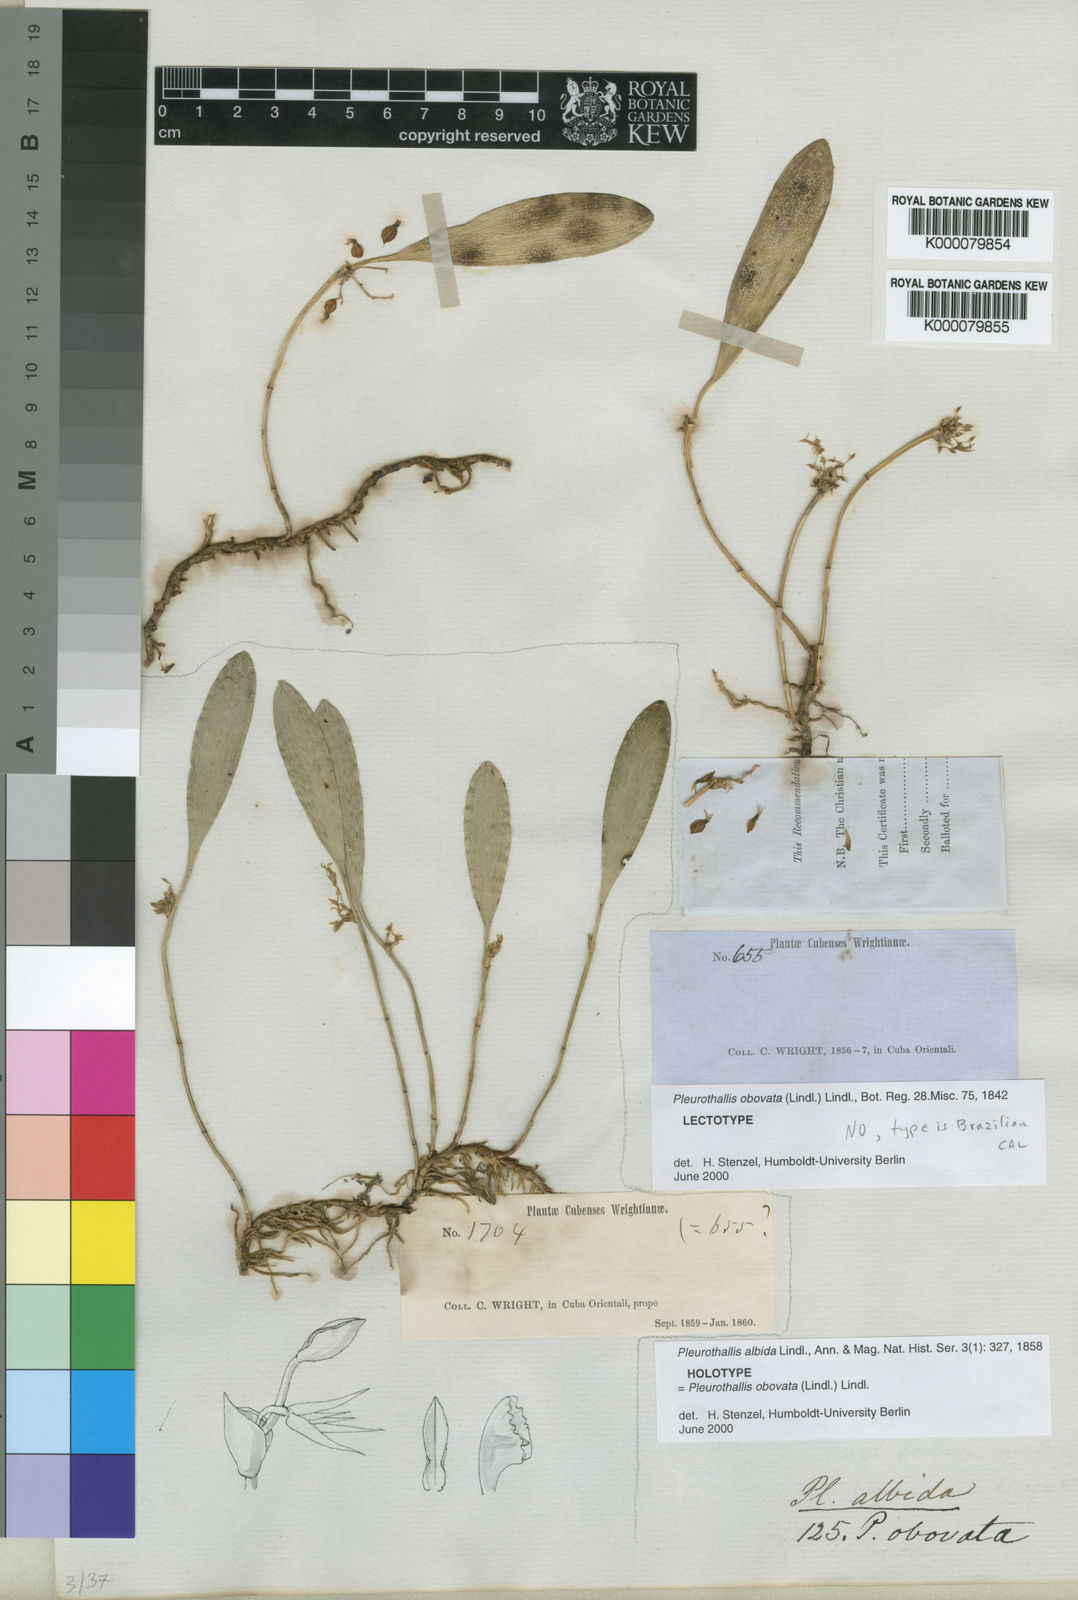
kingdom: Plantae
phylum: Tracheophyta
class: Liliopsida
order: Asparagales
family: Orchidaceae
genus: Anathallis
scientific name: Anathallis obovata
